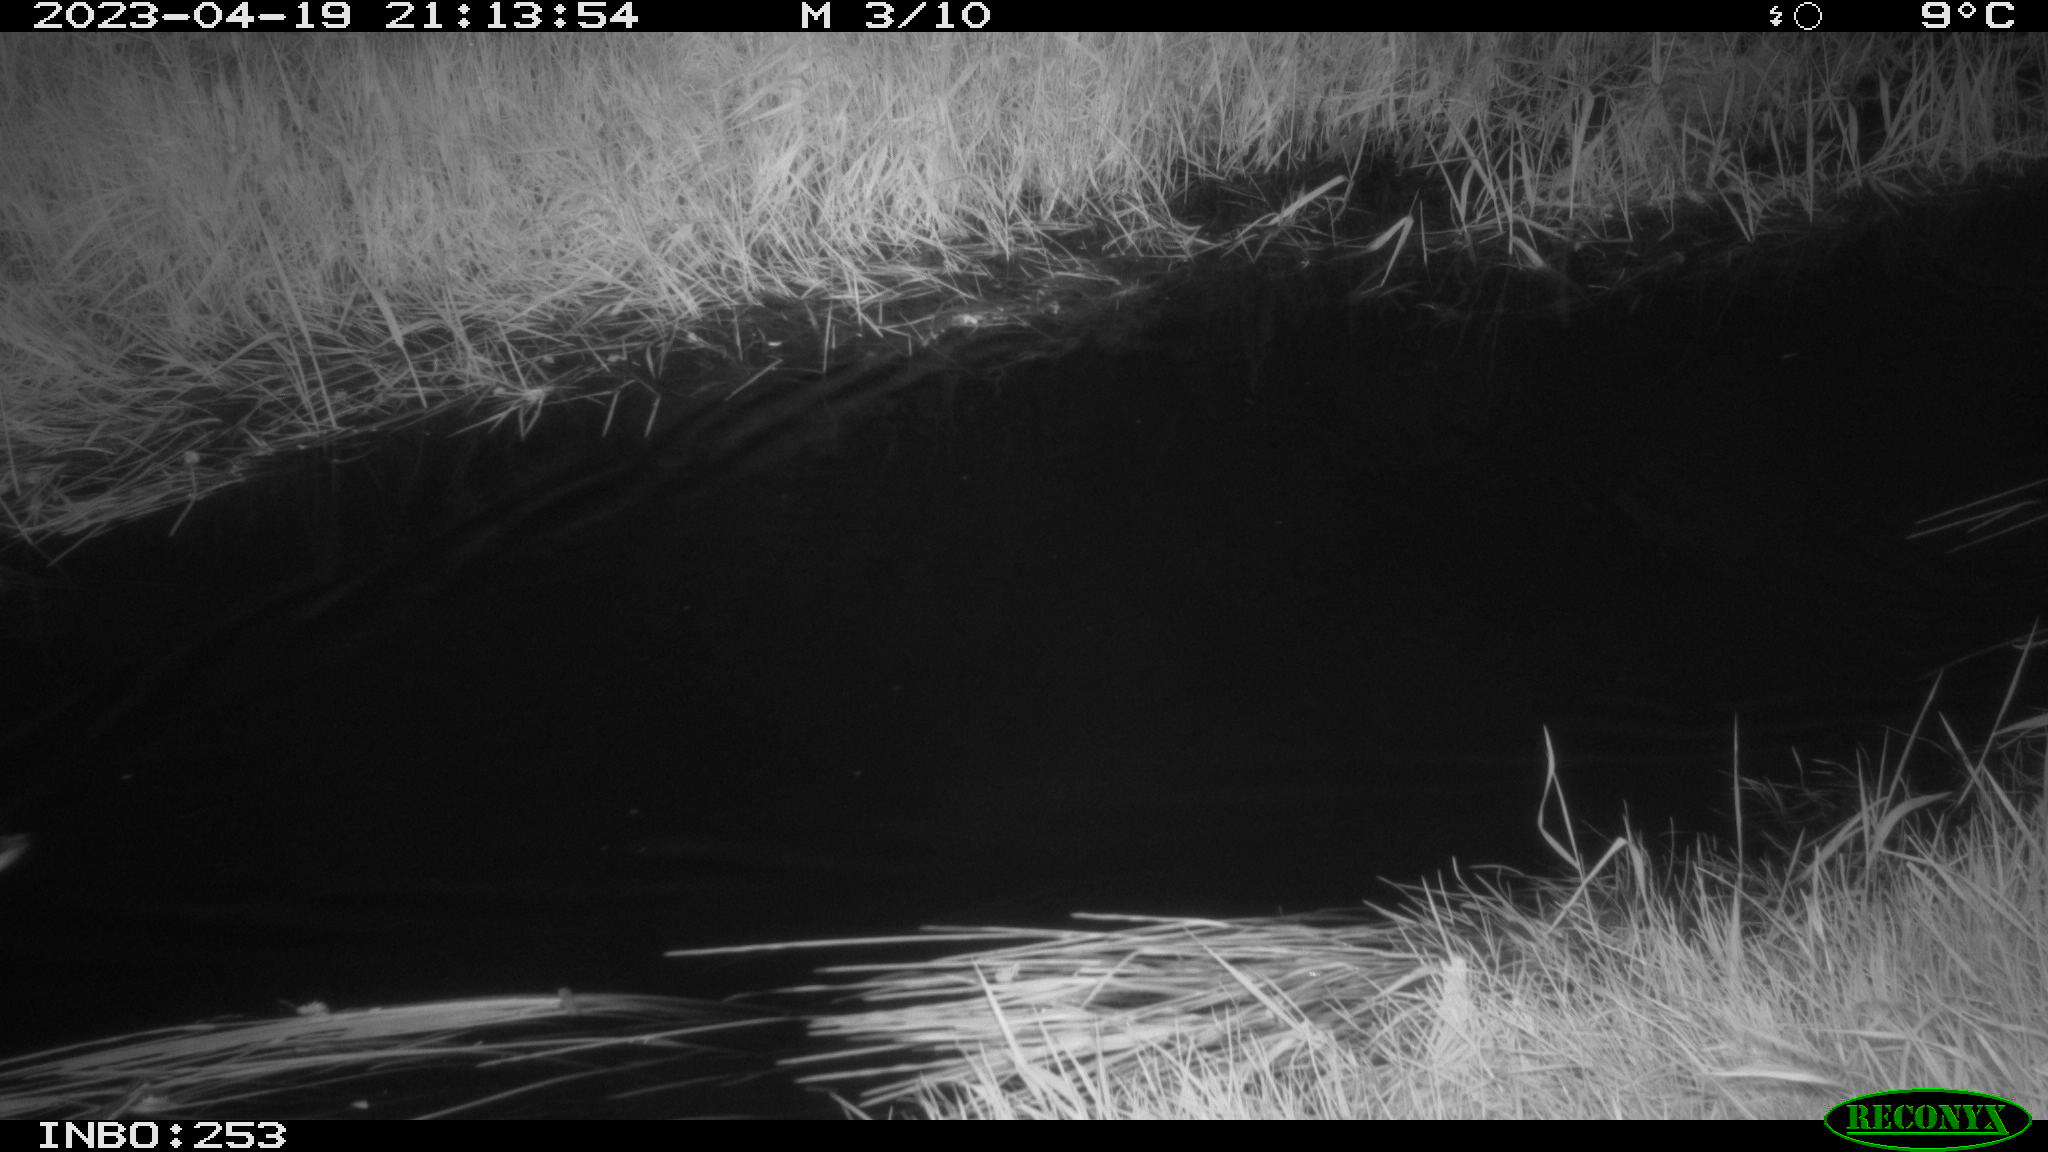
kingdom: Animalia
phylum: Chordata
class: Aves
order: Anseriformes
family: Anatidae
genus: Anas
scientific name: Anas
